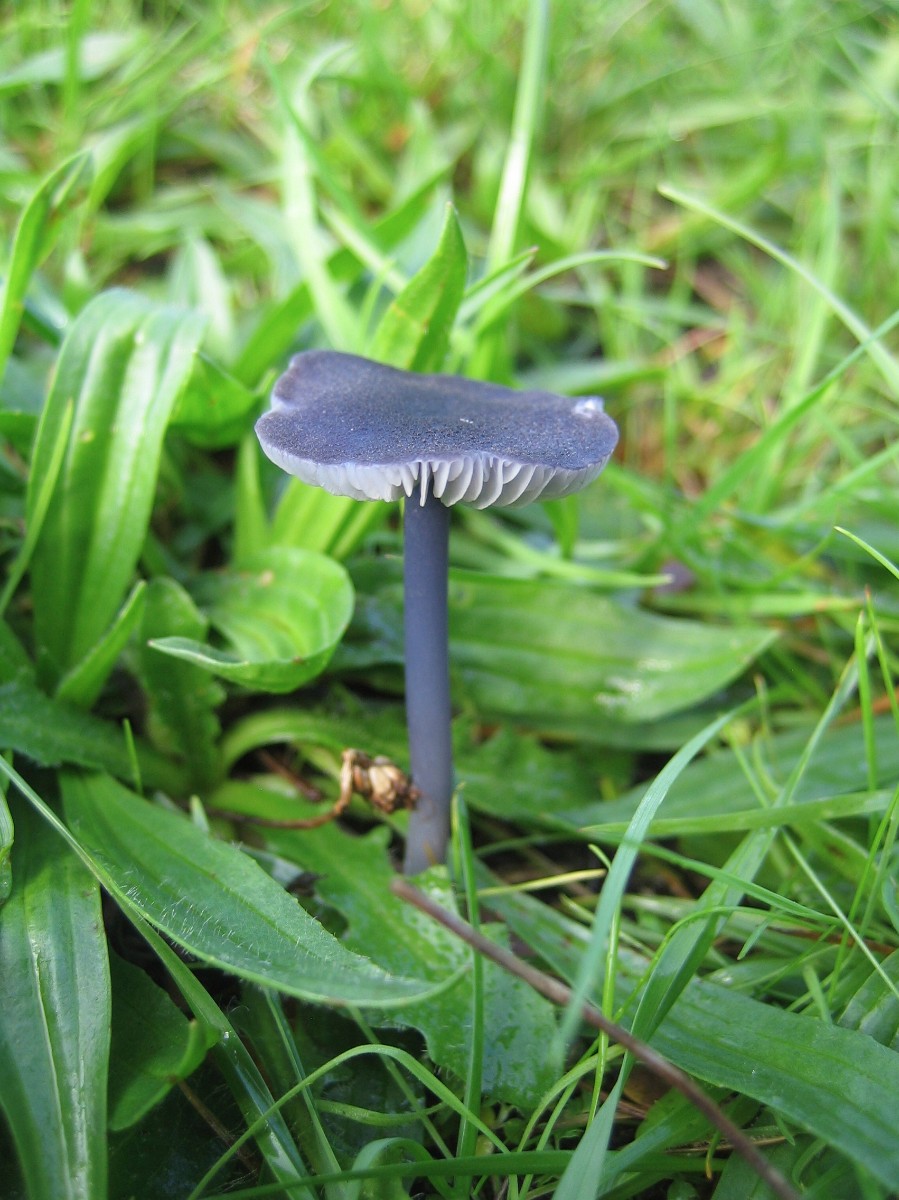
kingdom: Fungi
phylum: Basidiomycota
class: Agaricomycetes
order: Agaricales
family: Entolomataceae
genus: Entoloma
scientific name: Entoloma atrocoeruleum
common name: sortblå rødblad
